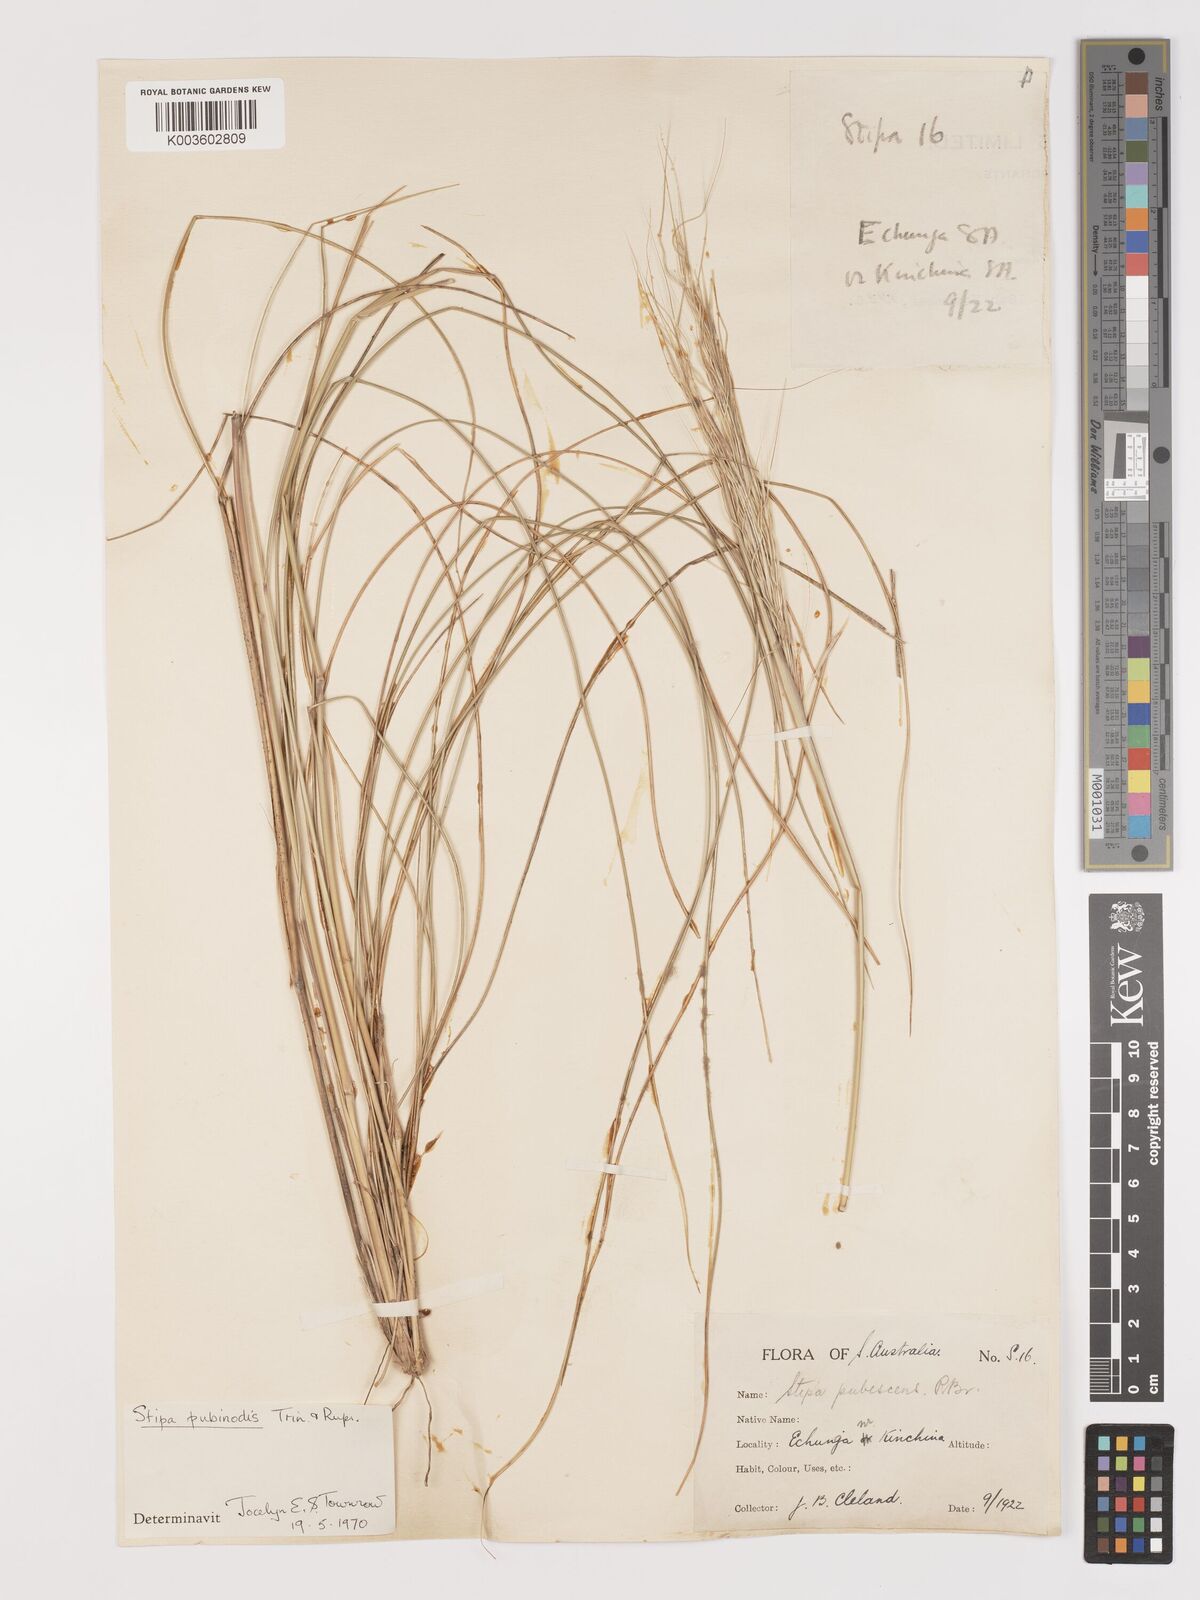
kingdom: Plantae
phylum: Tracheophyta
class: Liliopsida
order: Poales
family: Poaceae
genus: Austrostipa
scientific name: Austrostipa pubescens
